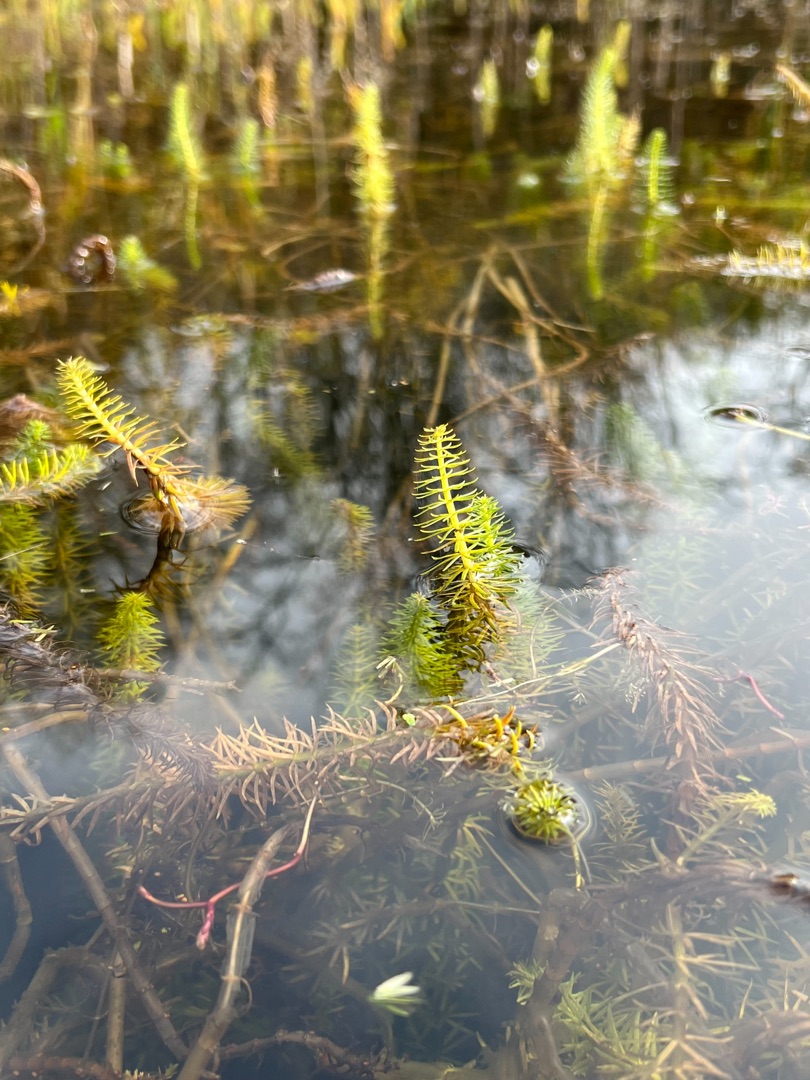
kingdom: Plantae
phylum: Tracheophyta
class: Magnoliopsida
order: Lamiales
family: Plantaginaceae
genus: Hippuris
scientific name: Hippuris vulgaris
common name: Vandspir
